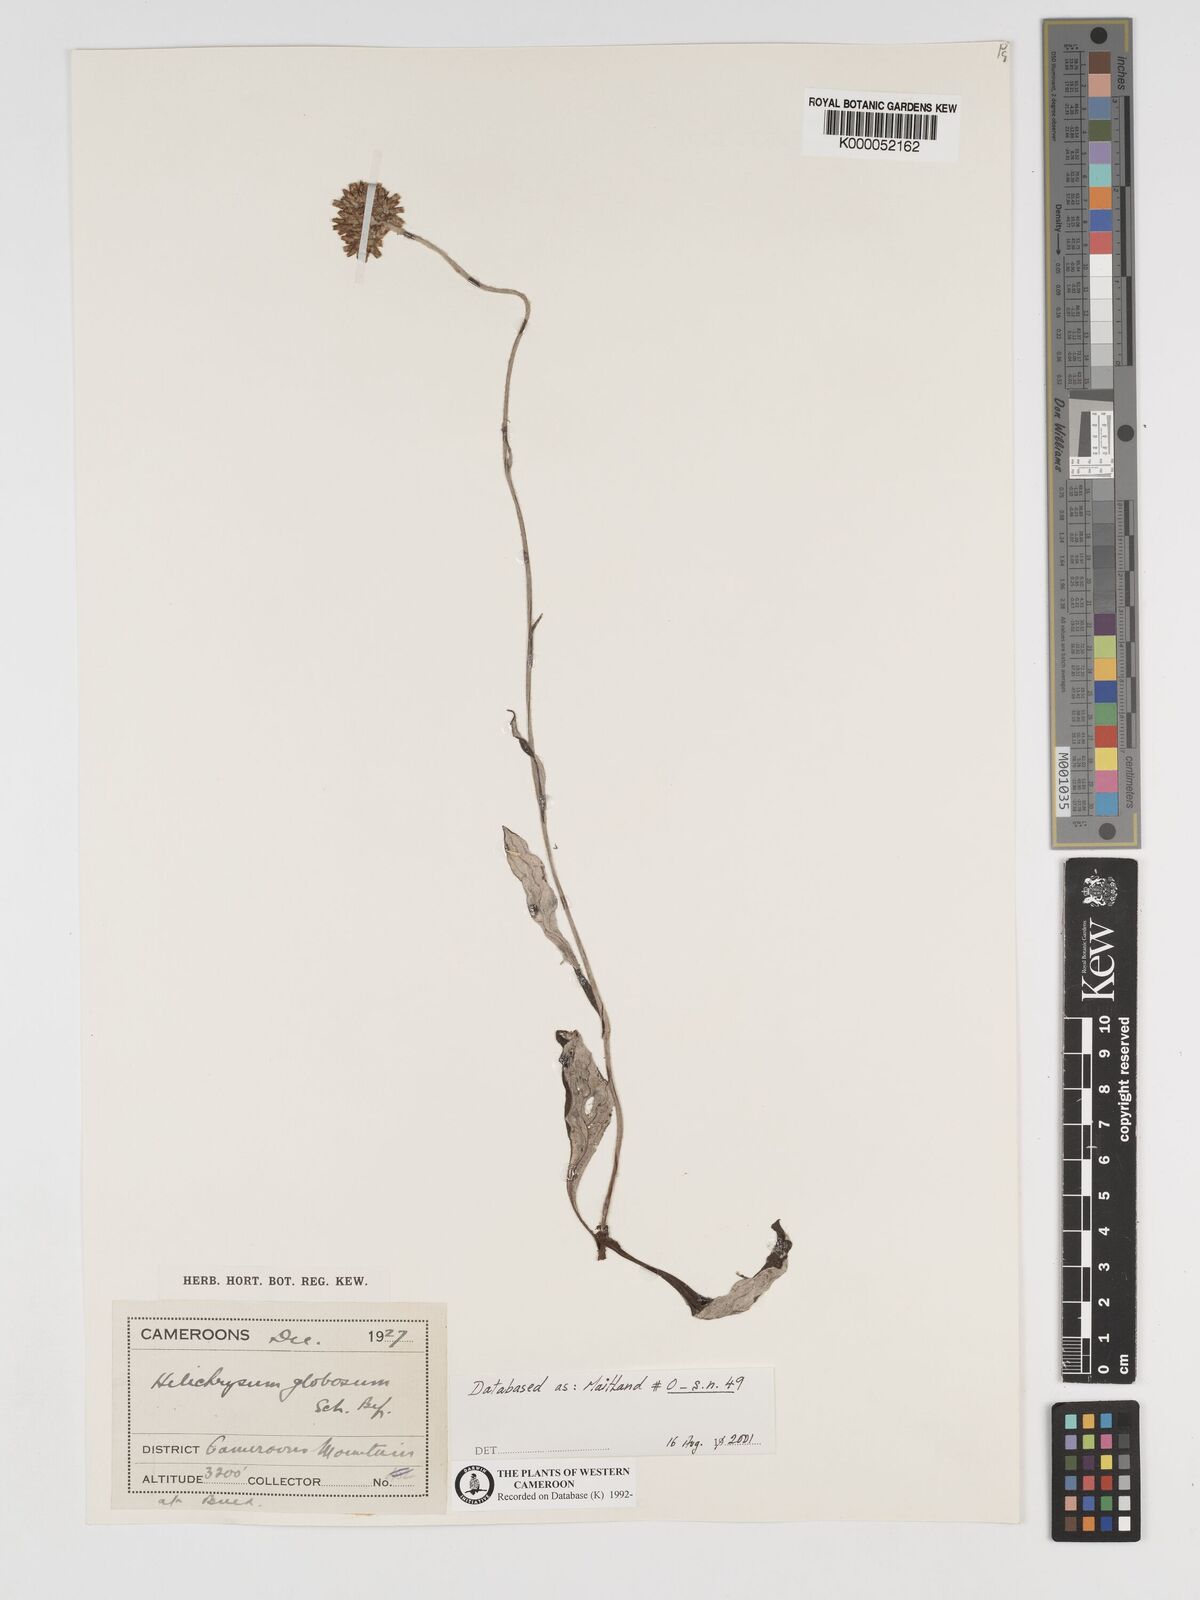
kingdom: Plantae
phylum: Tracheophyta
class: Magnoliopsida
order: Asterales
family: Asteraceae
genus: Helichrysum
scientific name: Helichrysum
